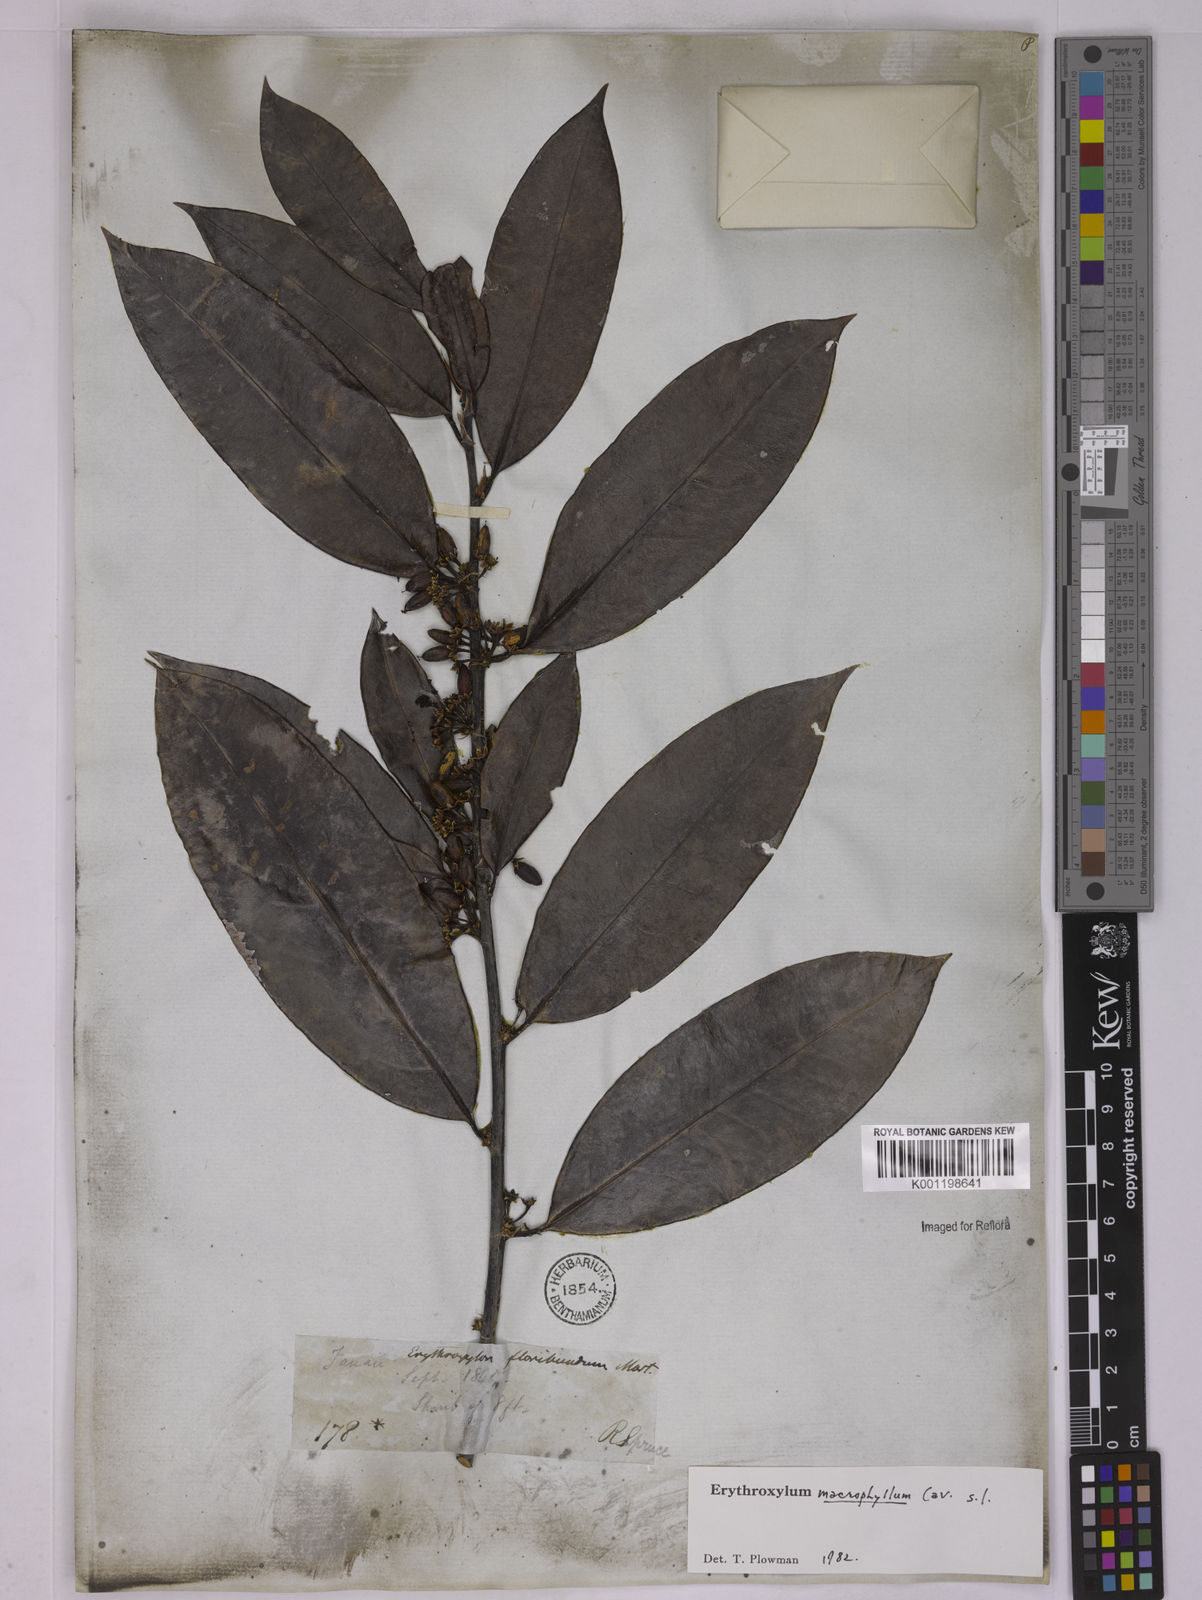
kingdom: Plantae
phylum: Tracheophyta
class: Magnoliopsida
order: Malpighiales
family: Erythroxylaceae
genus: Erythroxylum
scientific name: Erythroxylum macrophyllum
